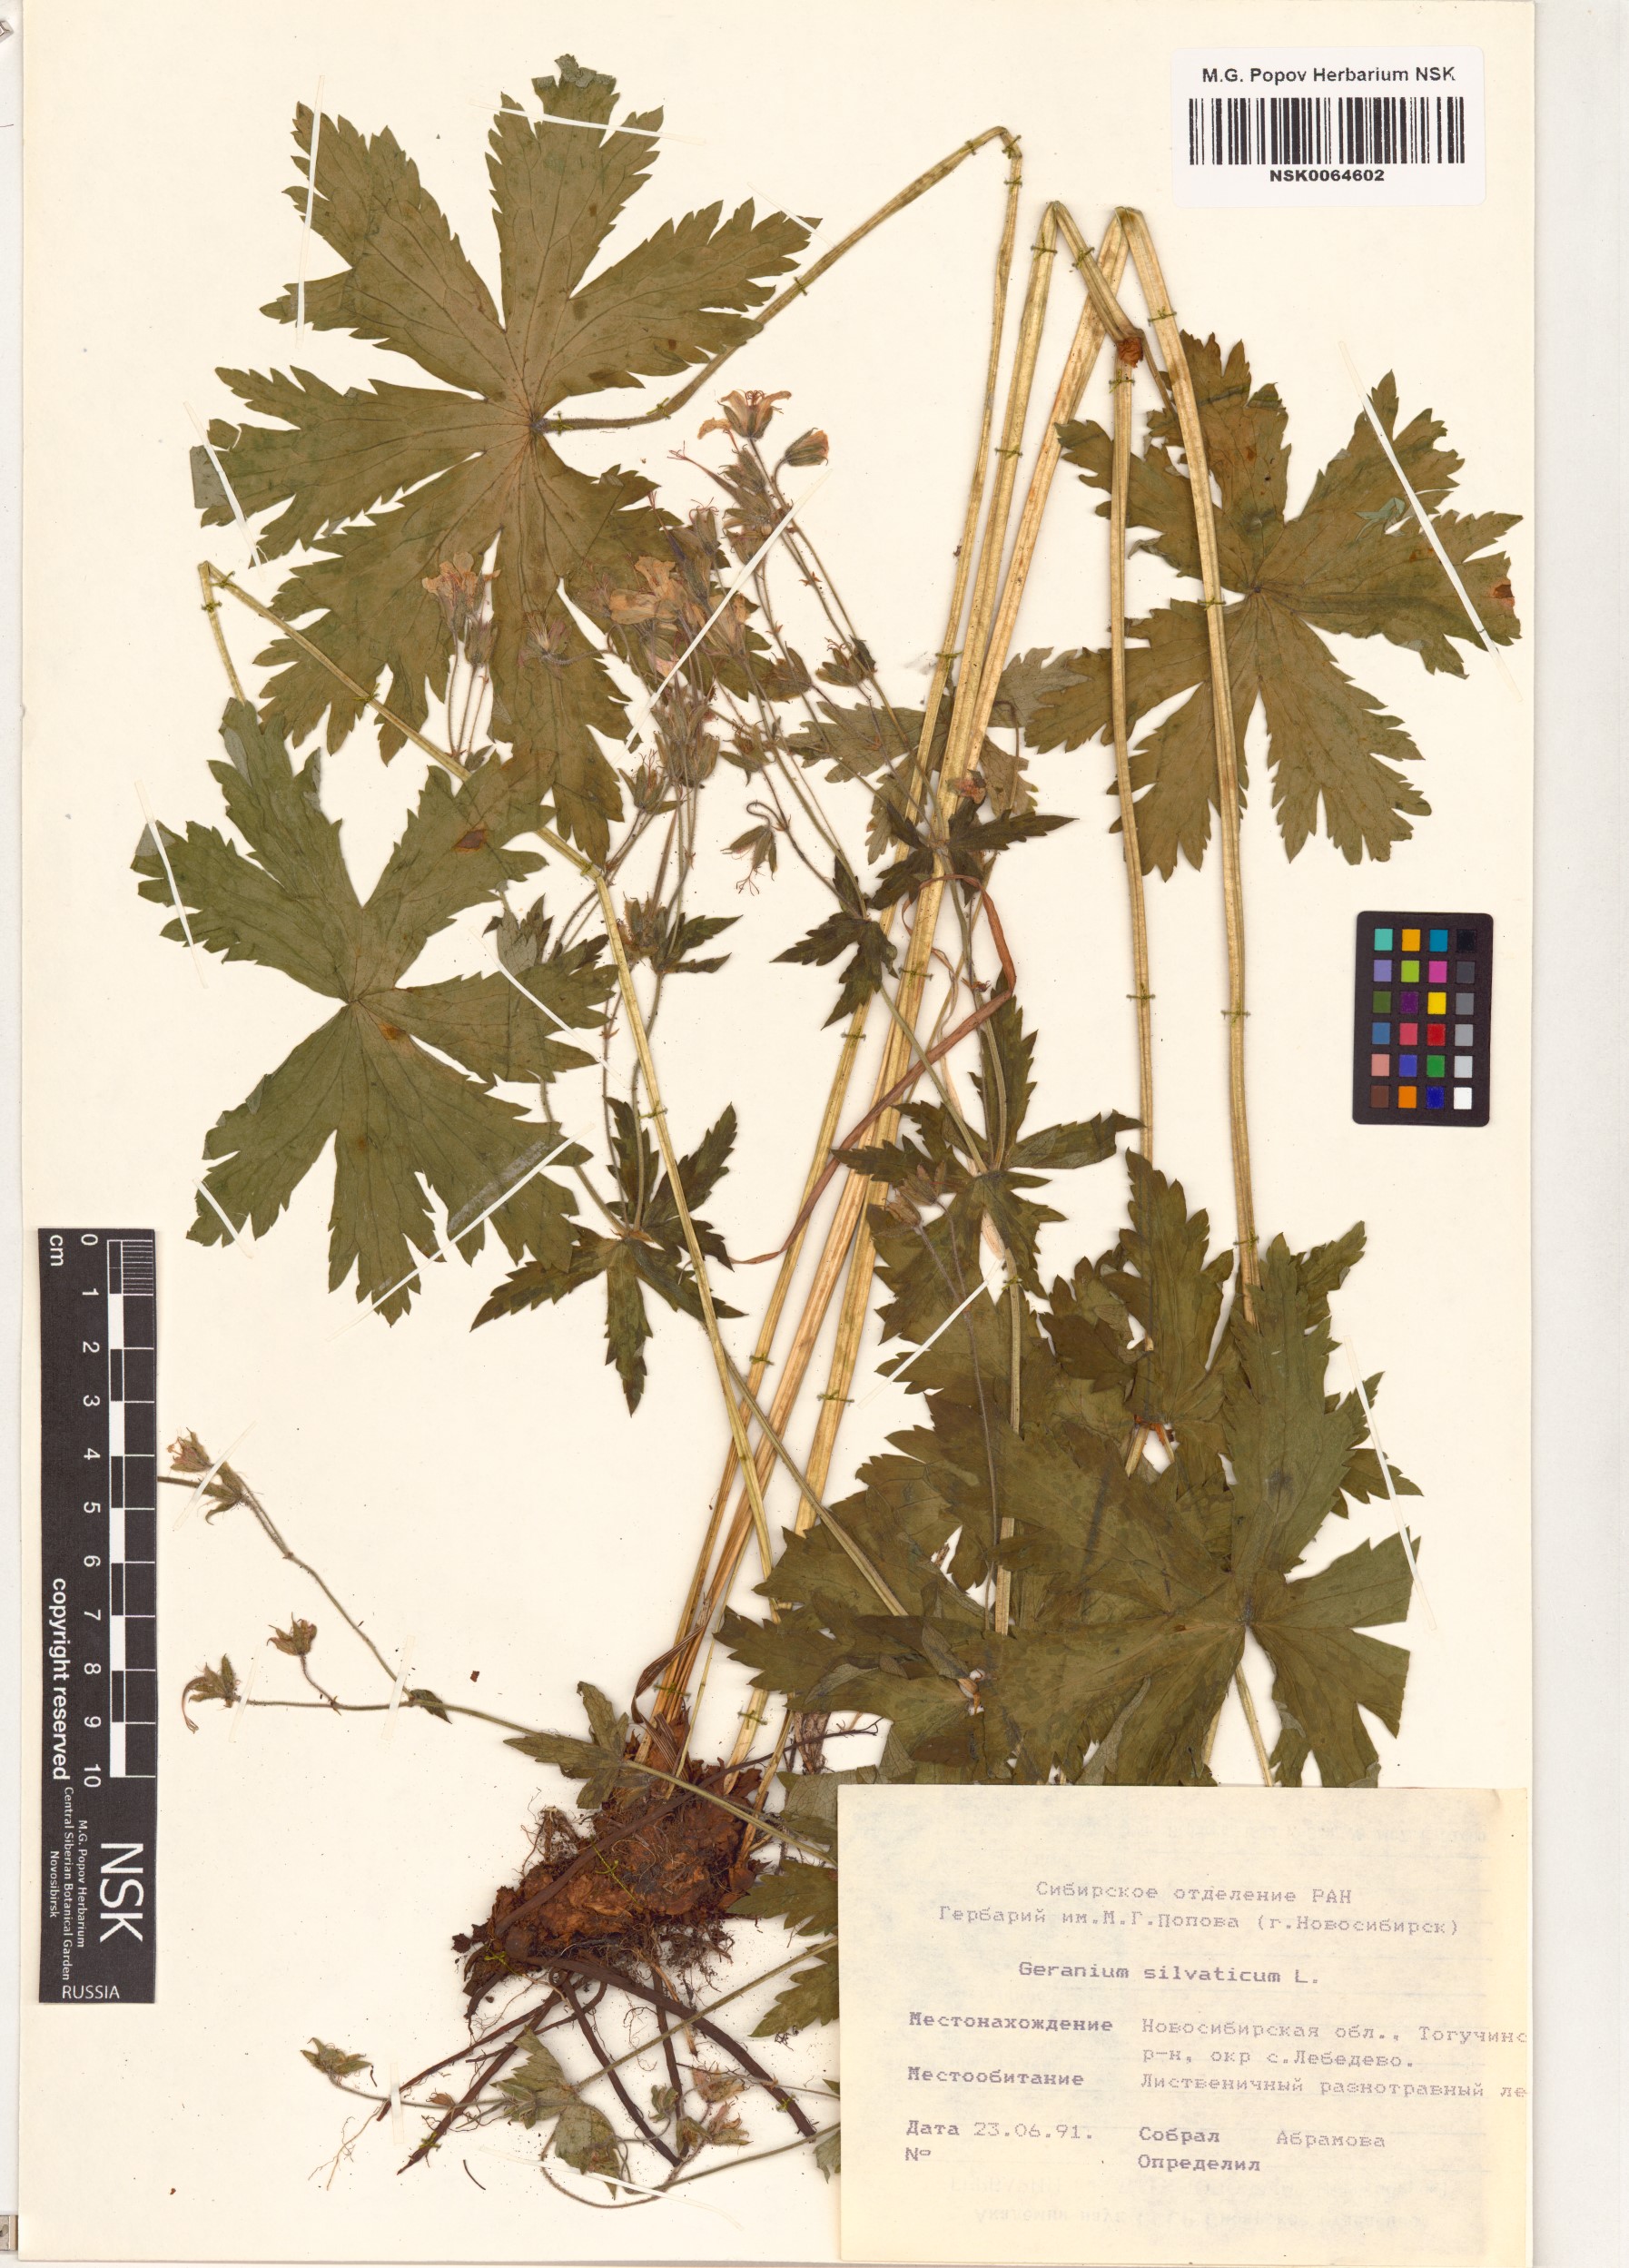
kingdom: Plantae
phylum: Tracheophyta
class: Magnoliopsida
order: Geraniales
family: Geraniaceae
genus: Geranium
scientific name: Geranium sylvaticum
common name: Wood crane's-bill
